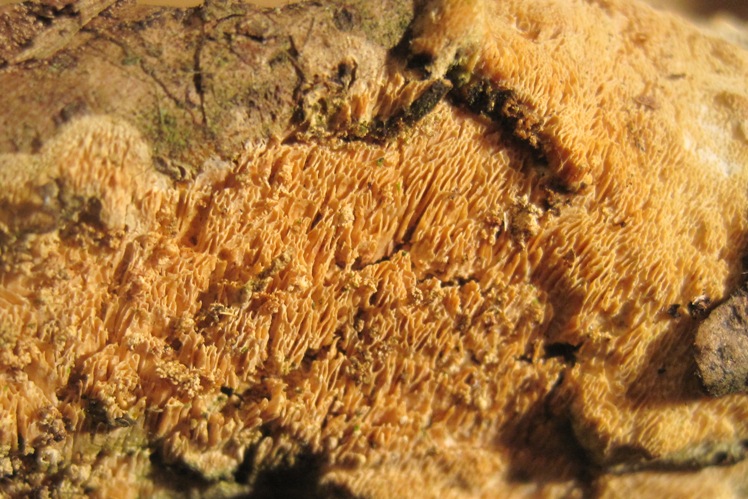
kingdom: Fungi
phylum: Basidiomycota
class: Agaricomycetes
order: Hymenochaetales
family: Schizoporaceae
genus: Xylodon
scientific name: Xylodon subtropicus
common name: labyrint-tandsvamp
